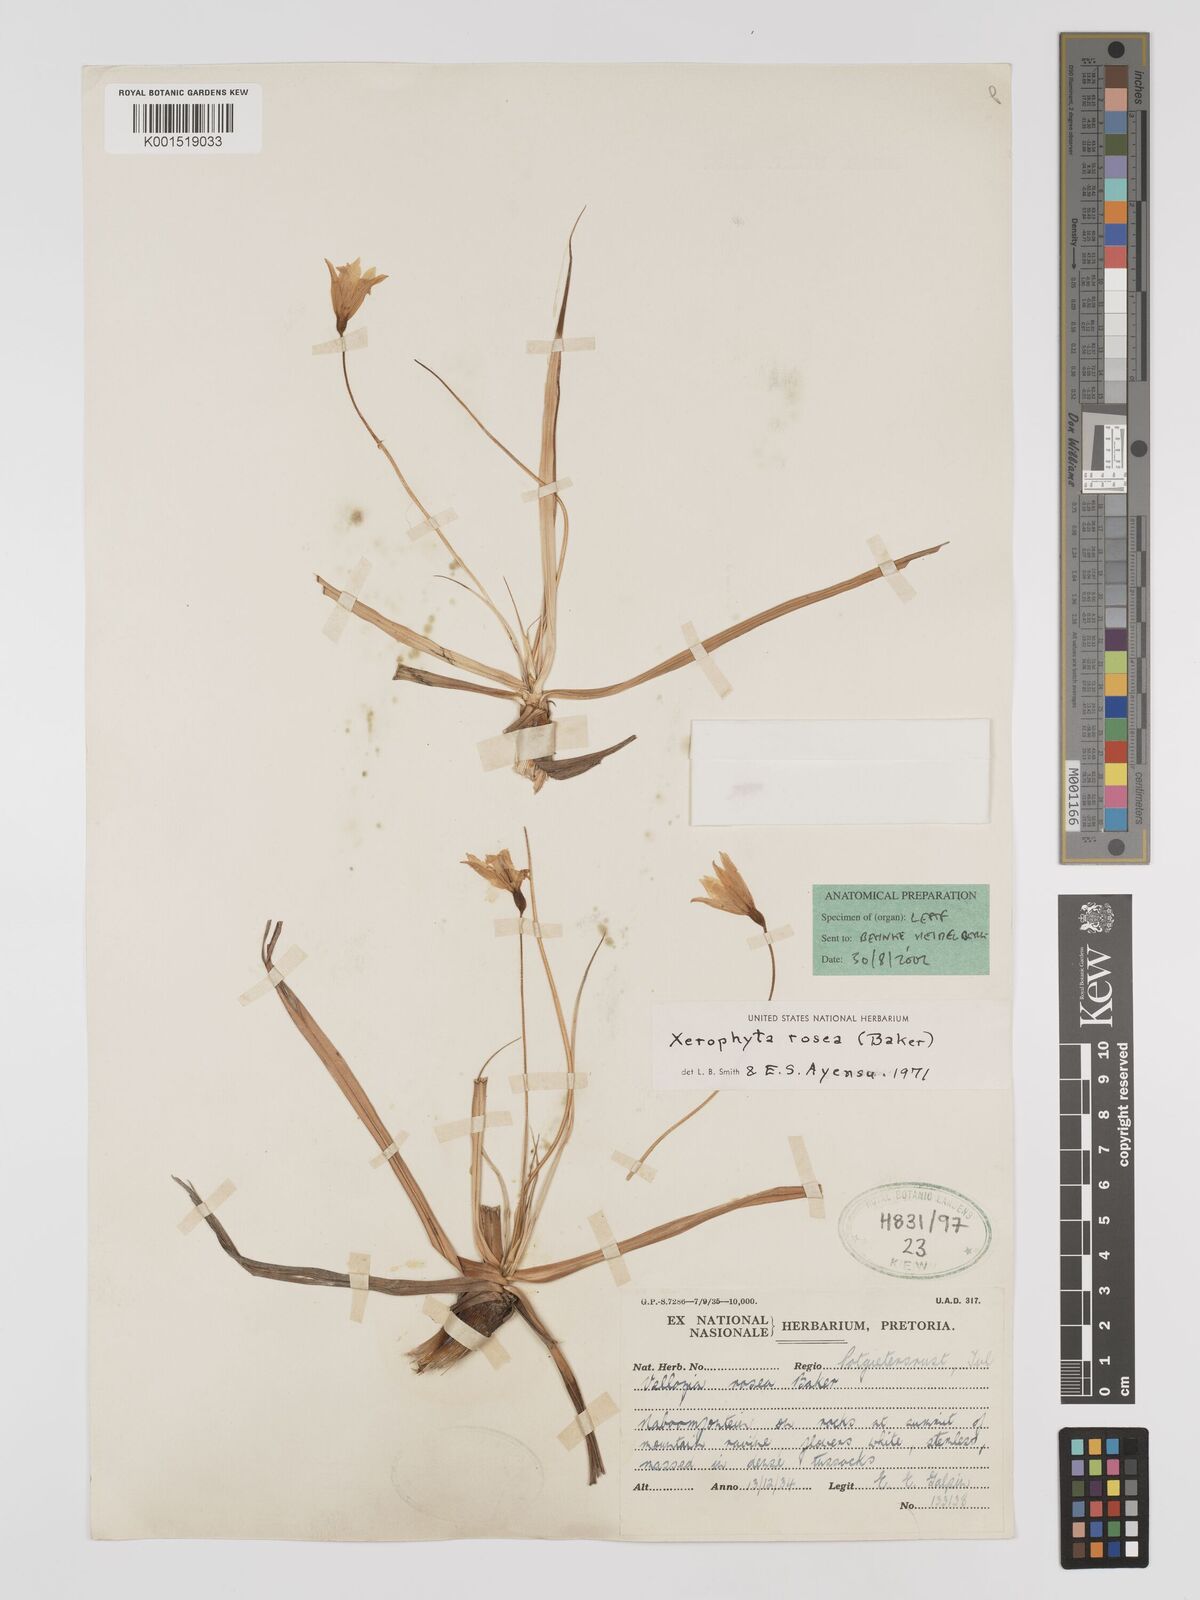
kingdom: Plantae
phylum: Tracheophyta
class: Liliopsida
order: Pandanales
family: Velloziaceae
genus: Xerophyta
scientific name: Xerophyta rosea
